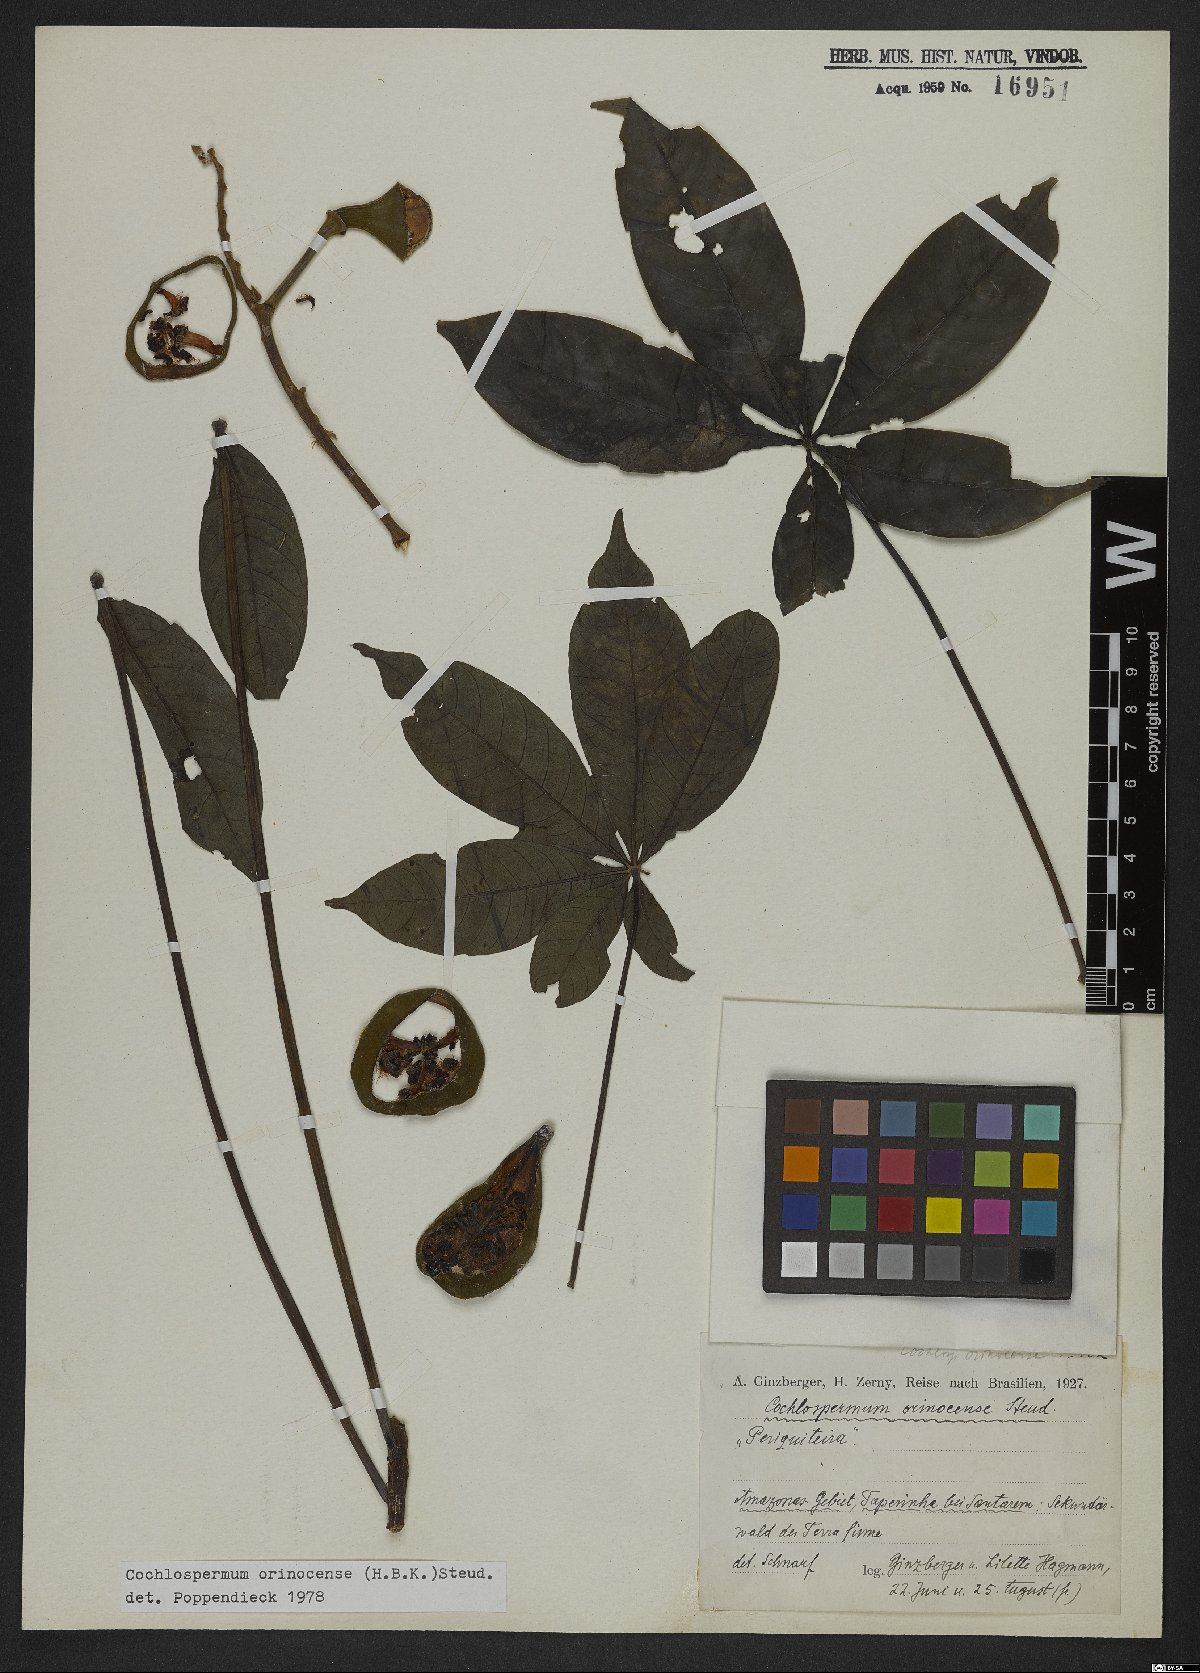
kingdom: Plantae
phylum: Tracheophyta
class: Magnoliopsida
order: Malvales
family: Cochlospermaceae
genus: Cochlospermum
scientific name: Cochlospermum orinocense
